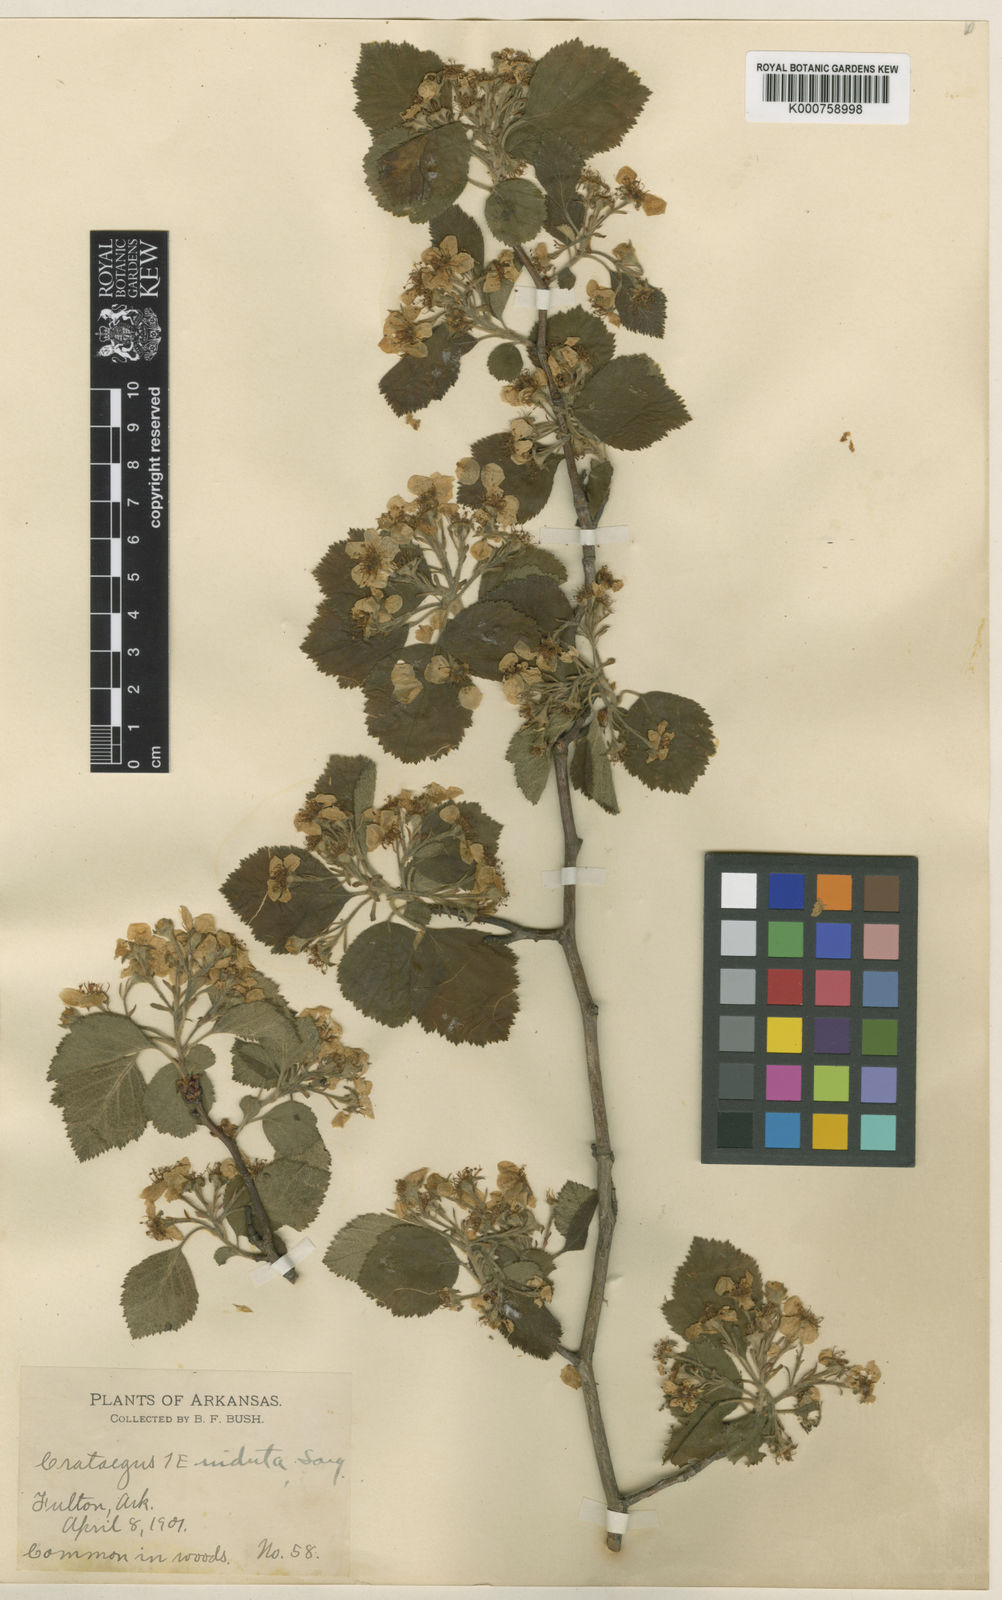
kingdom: Plantae
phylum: Tracheophyta
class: Magnoliopsida
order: Rosales
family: Rosaceae
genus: Crataegus
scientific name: Crataegus mollis
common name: Downy hawthorn
